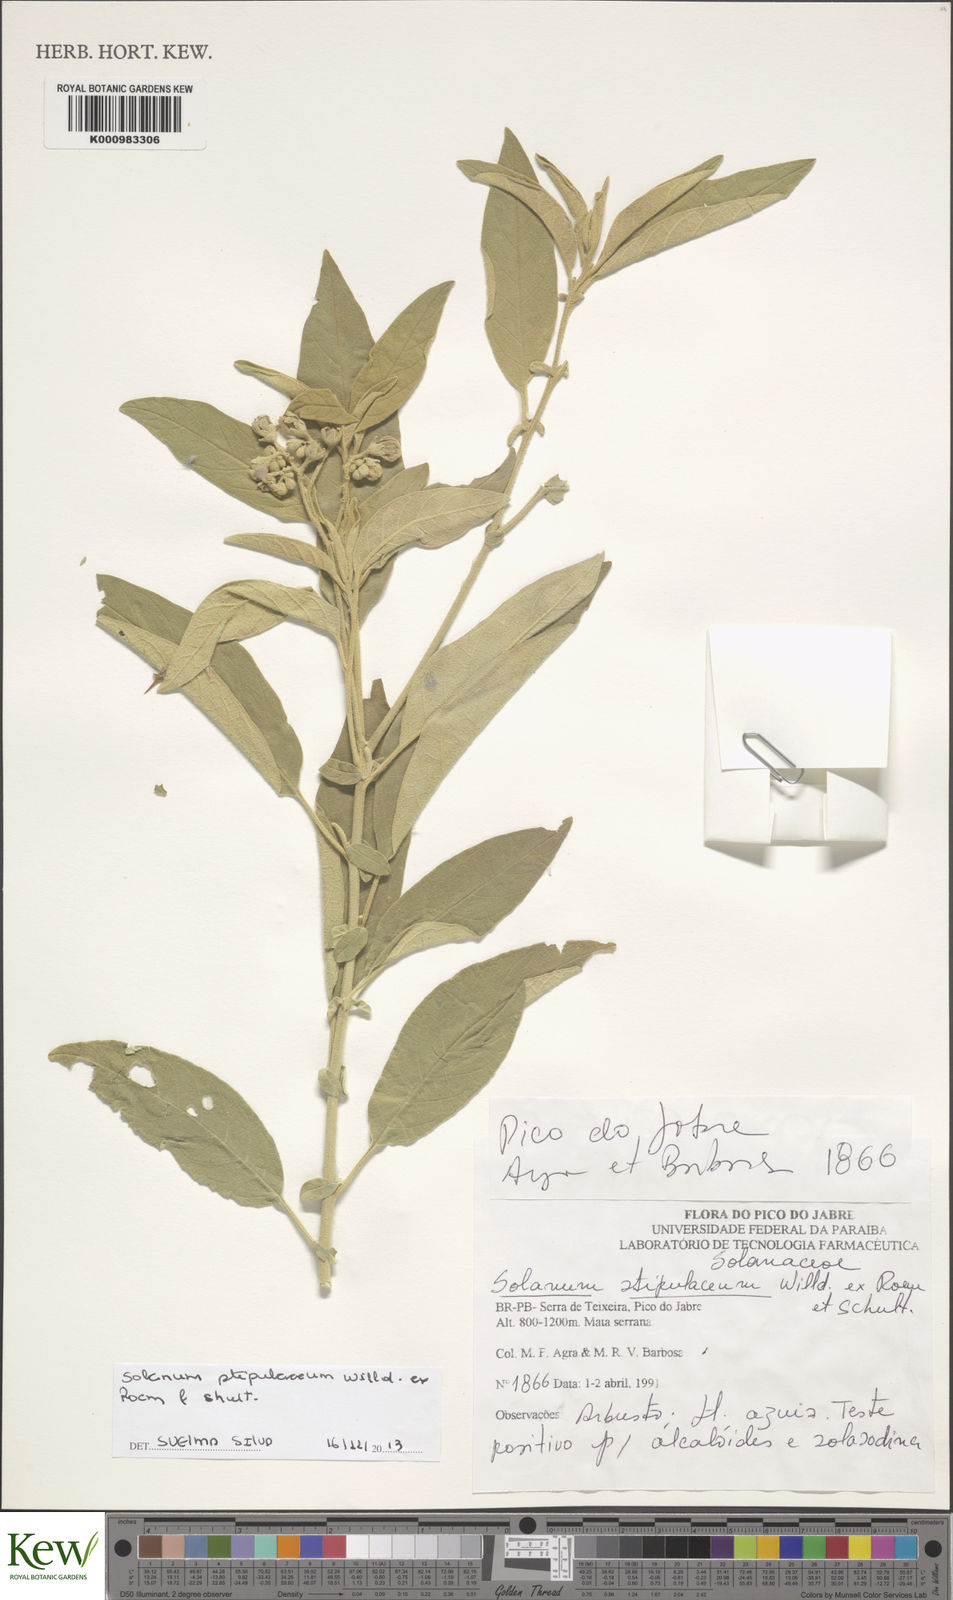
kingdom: Plantae
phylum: Tracheophyta
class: Magnoliopsida
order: Solanales
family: Solanaceae
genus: Solanum
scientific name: Solanum stipulaceum
